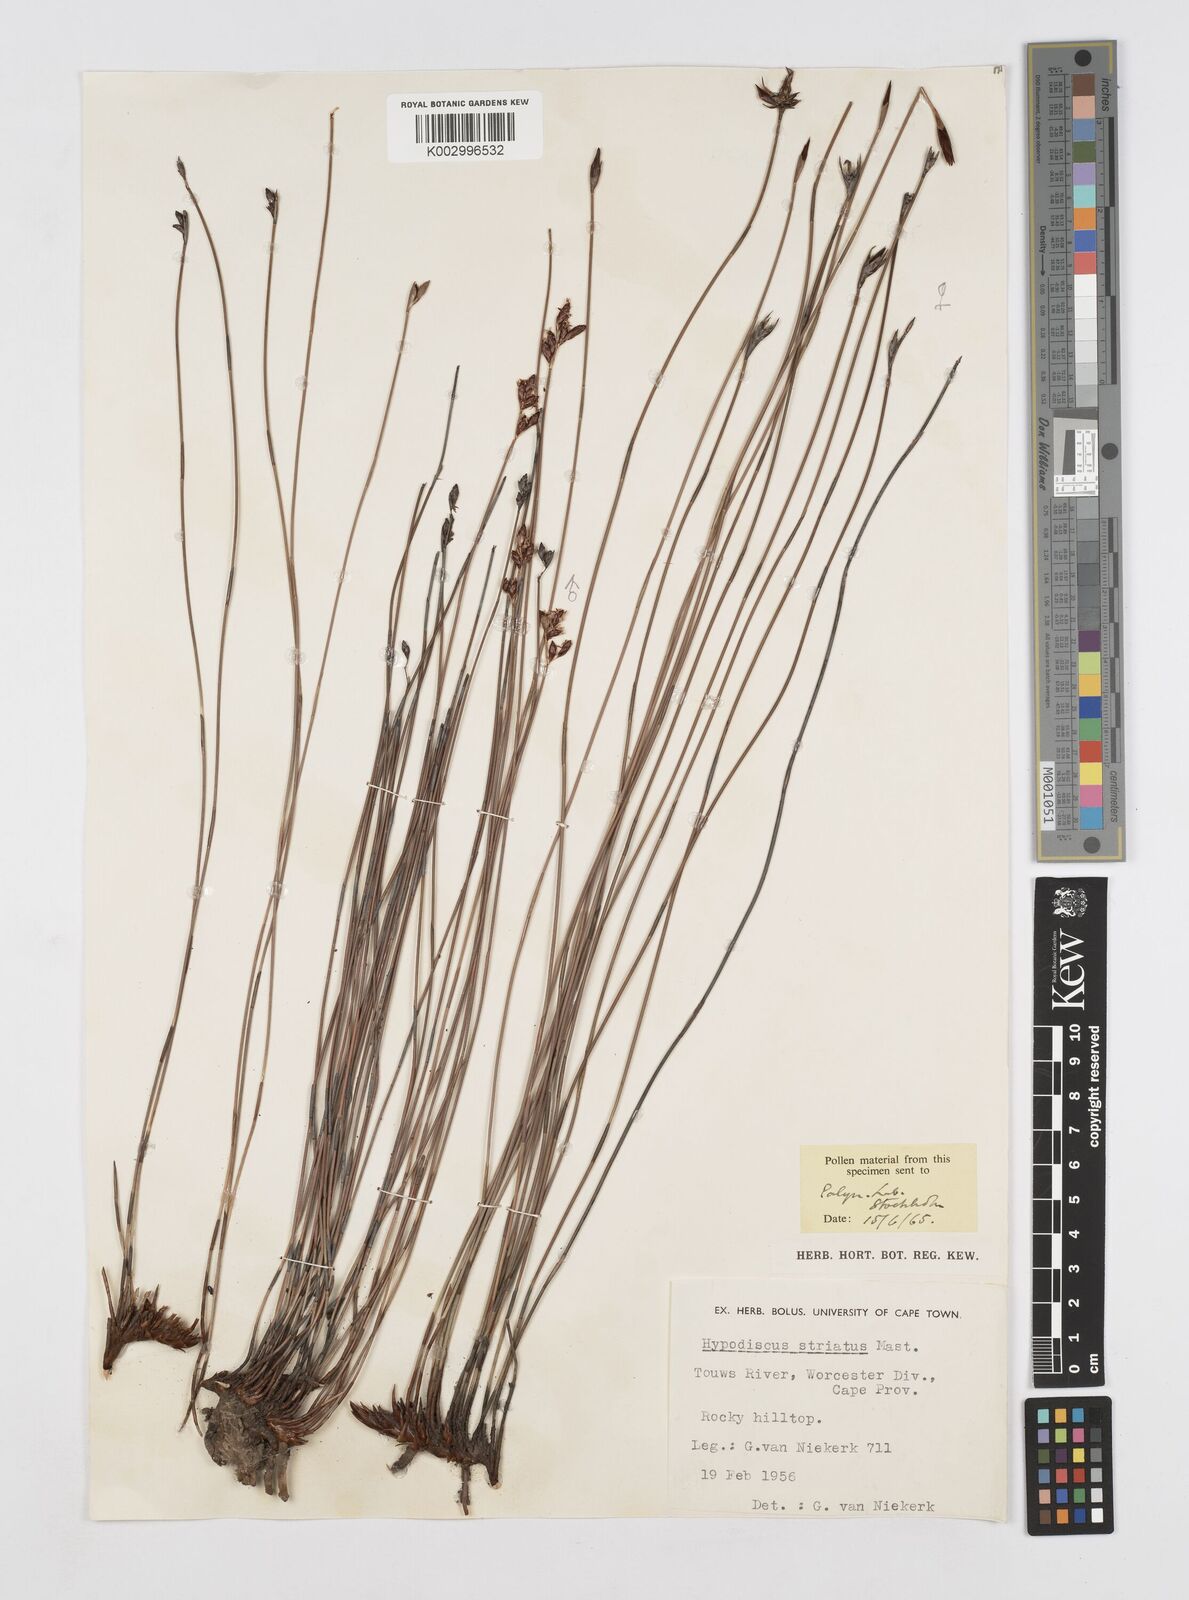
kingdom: Plantae
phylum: Tracheophyta
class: Liliopsida
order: Poales
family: Restionaceae
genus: Hypodiscus
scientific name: Hypodiscus striatus
